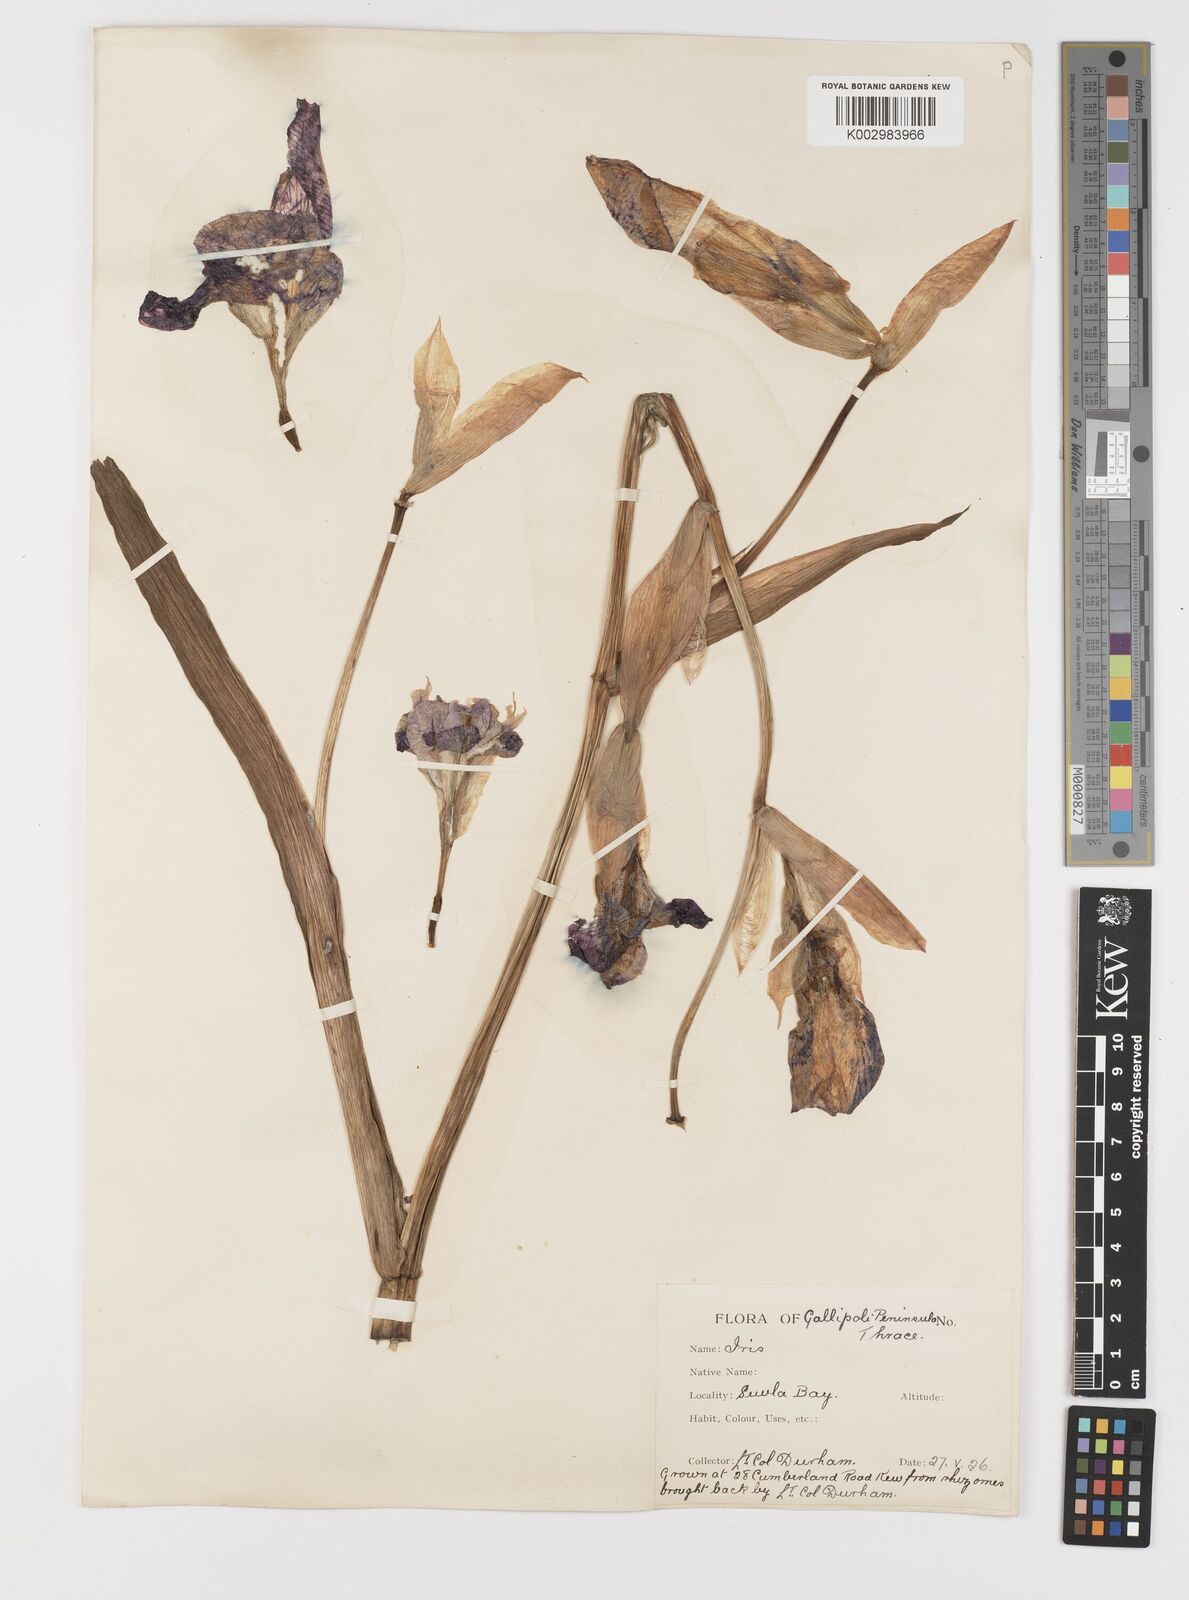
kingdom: Plantae
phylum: Tracheophyta
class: Liliopsida
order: Asparagales
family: Iridaceae
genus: Iris
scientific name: Iris germanica
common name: German iris
